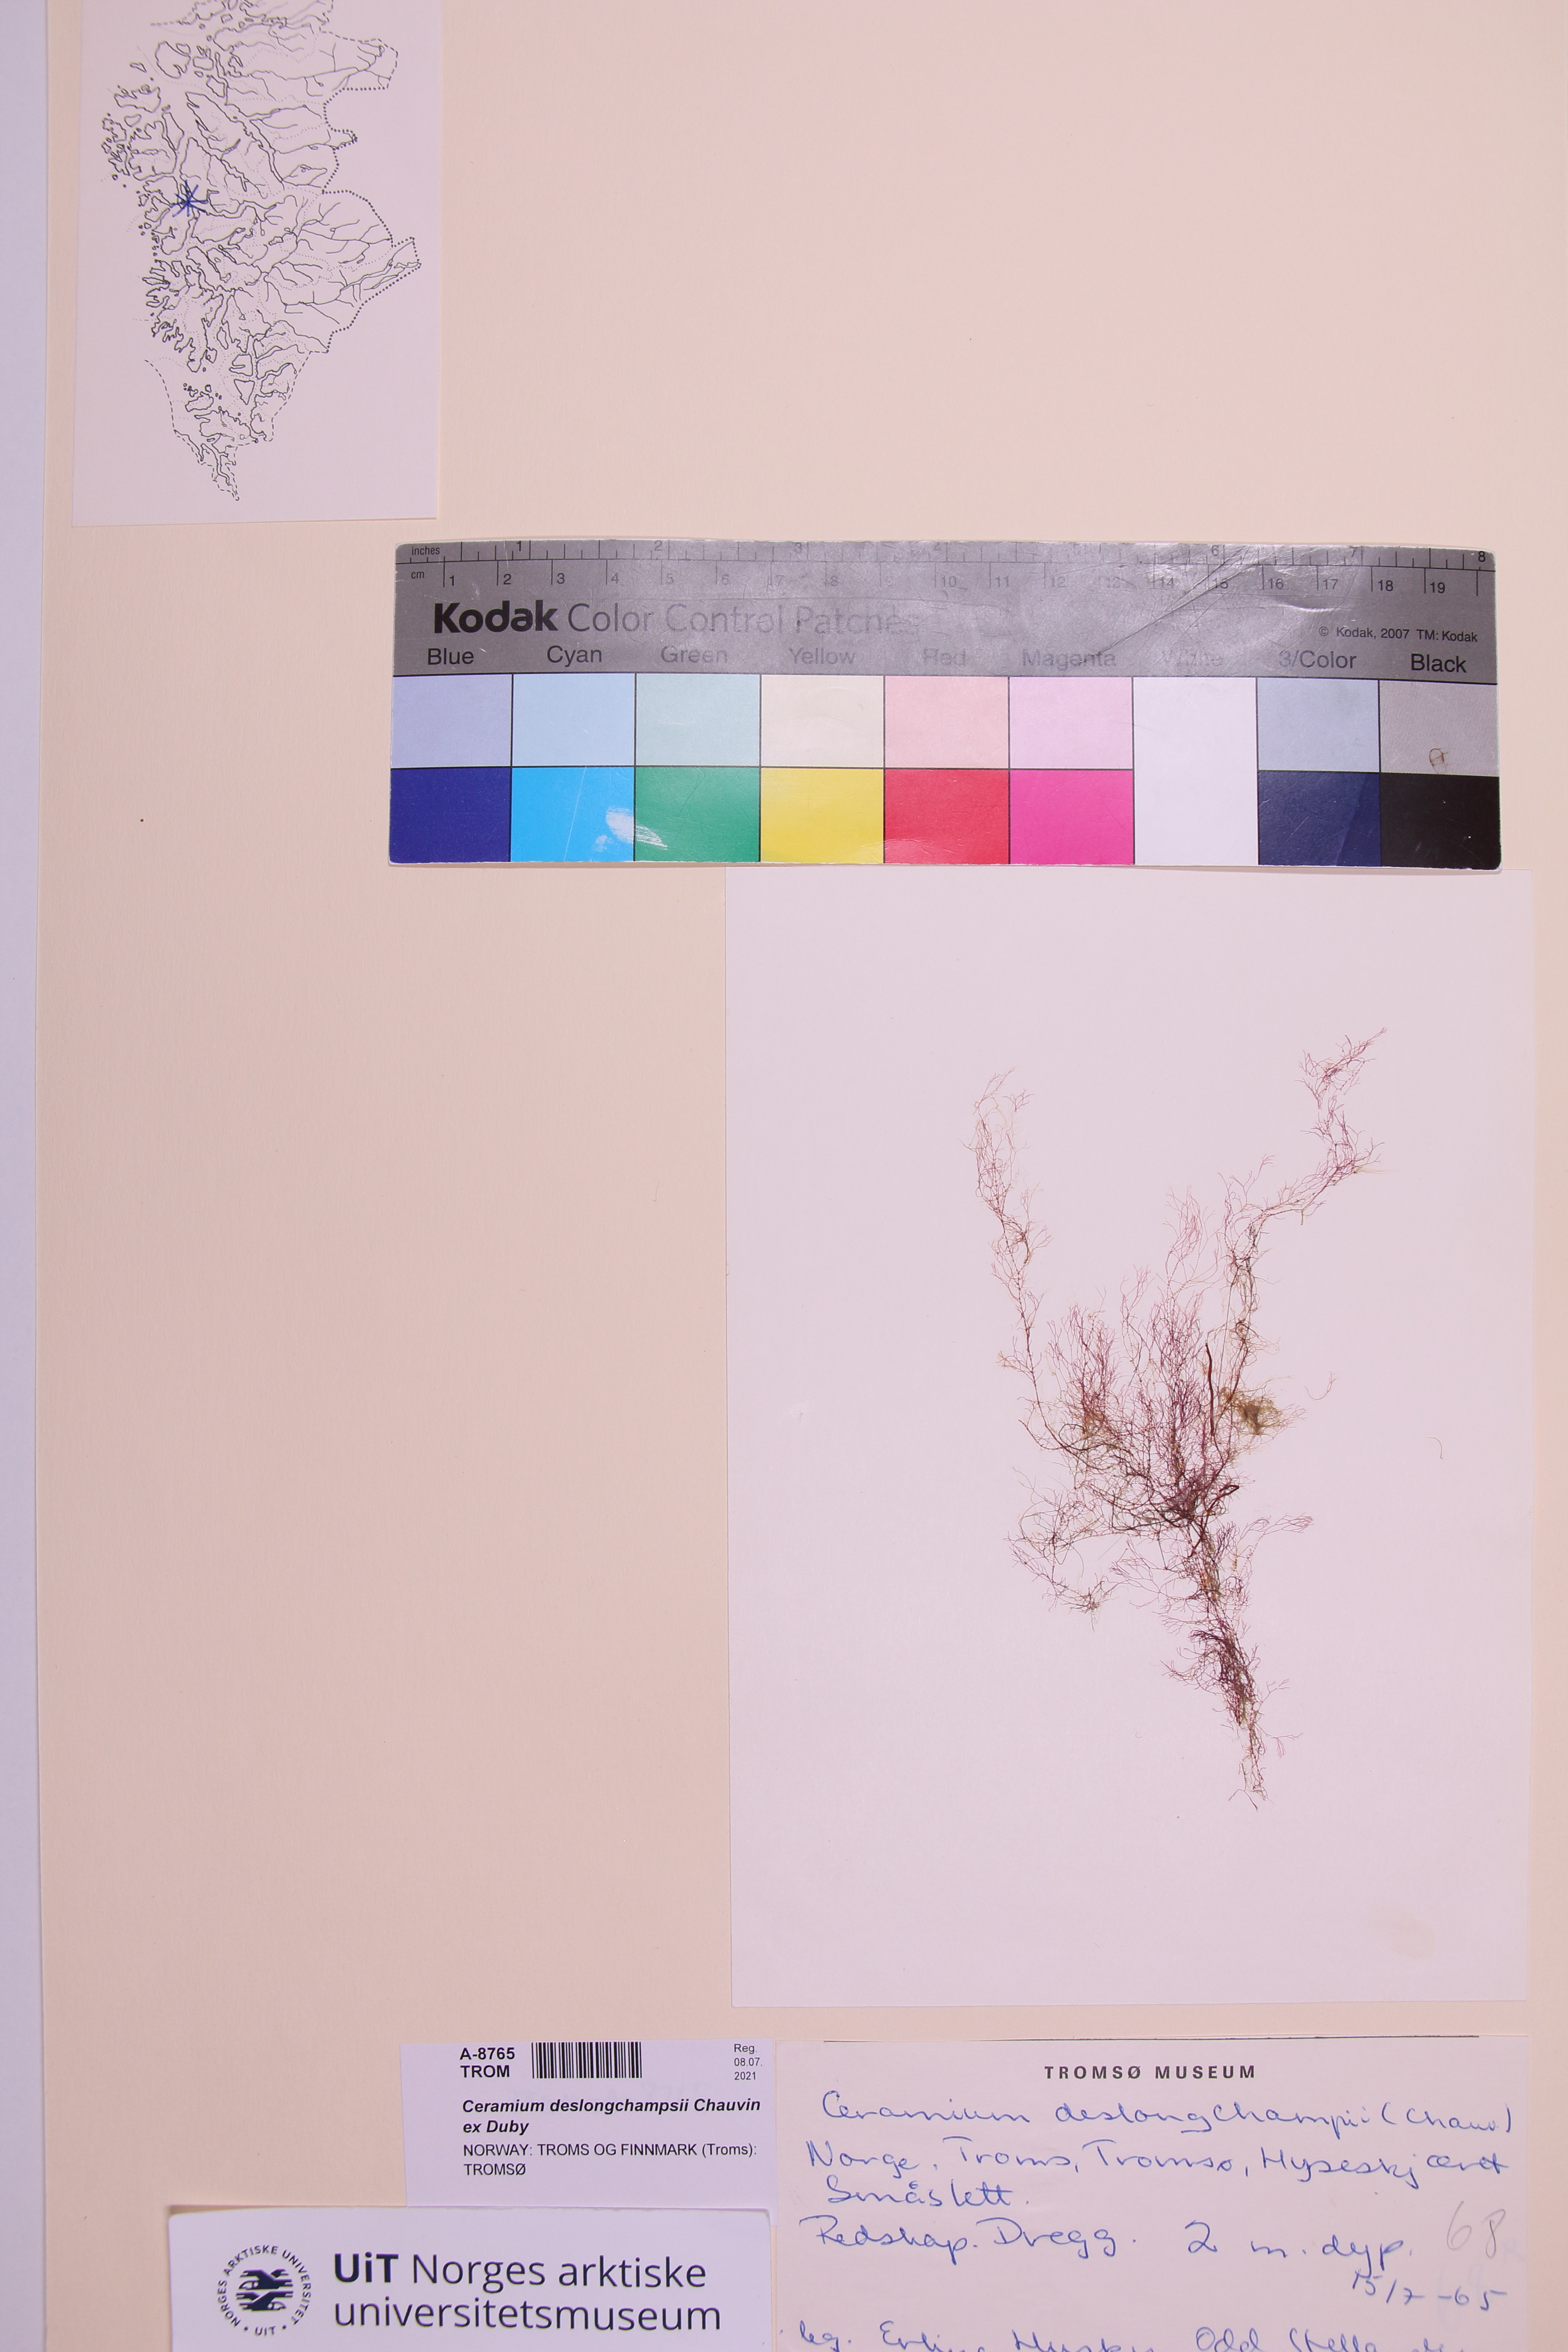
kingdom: Plantae
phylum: Rhodophyta
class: Florideophyceae
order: Ceramiales
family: Ceramiaceae
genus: Ceramium
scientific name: Ceramium deslongchampsii
